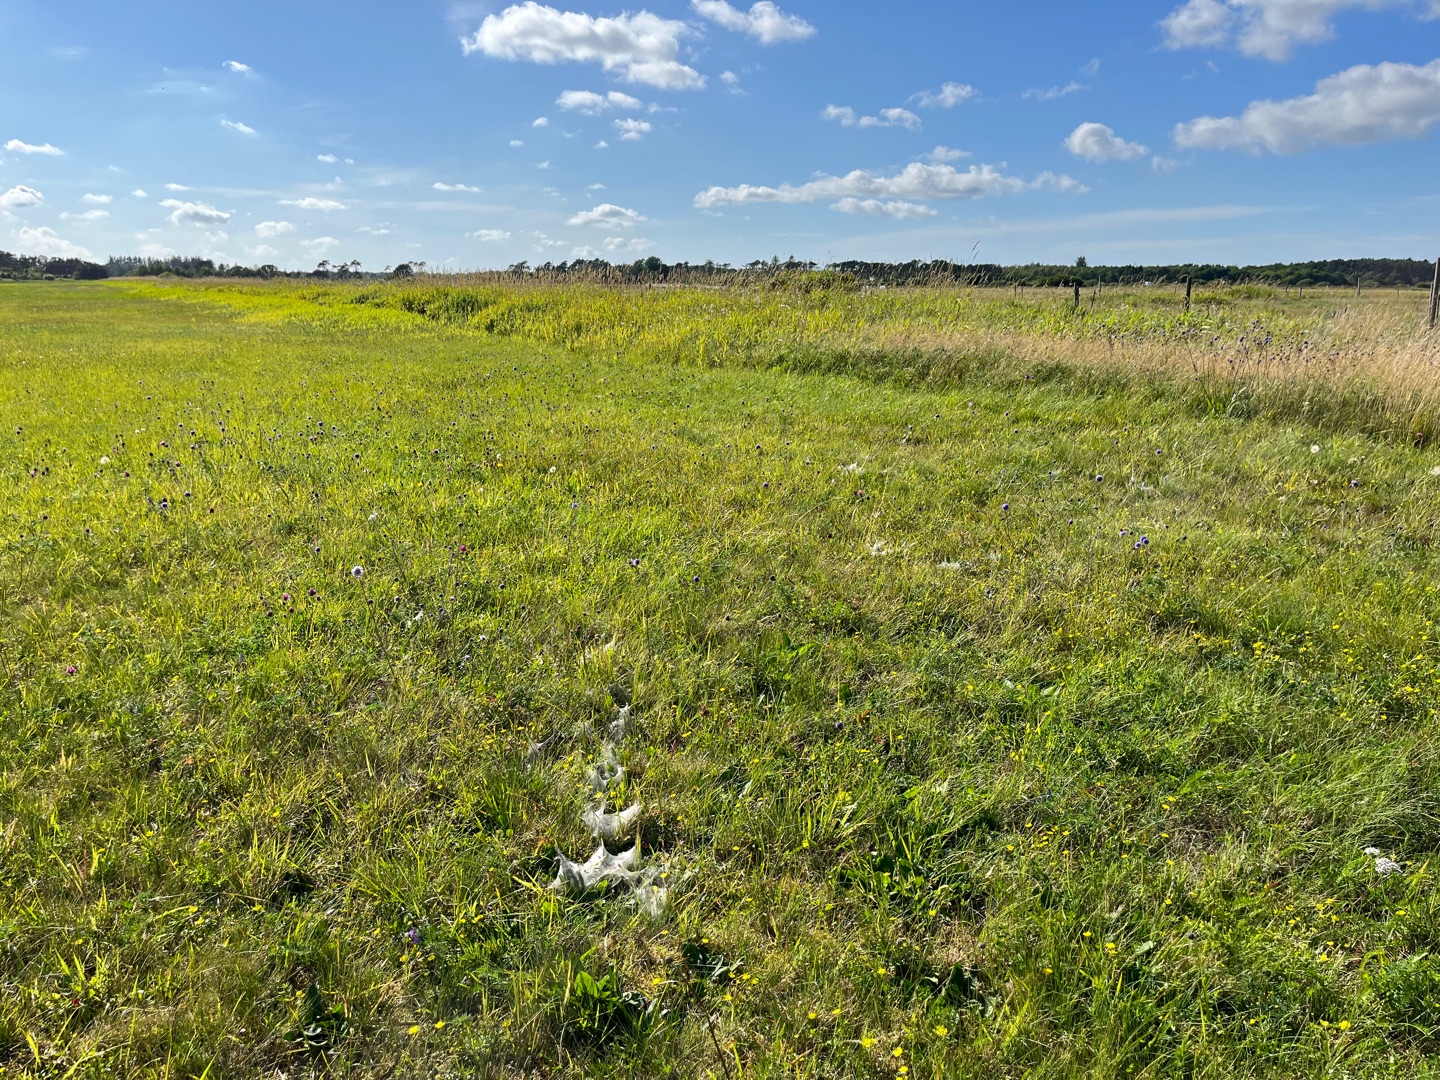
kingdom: Animalia
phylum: Arthropoda
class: Insecta
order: Lepidoptera
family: Nymphalidae
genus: Euphydryas
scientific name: Euphydryas aurinia
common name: Hedepletvinge
